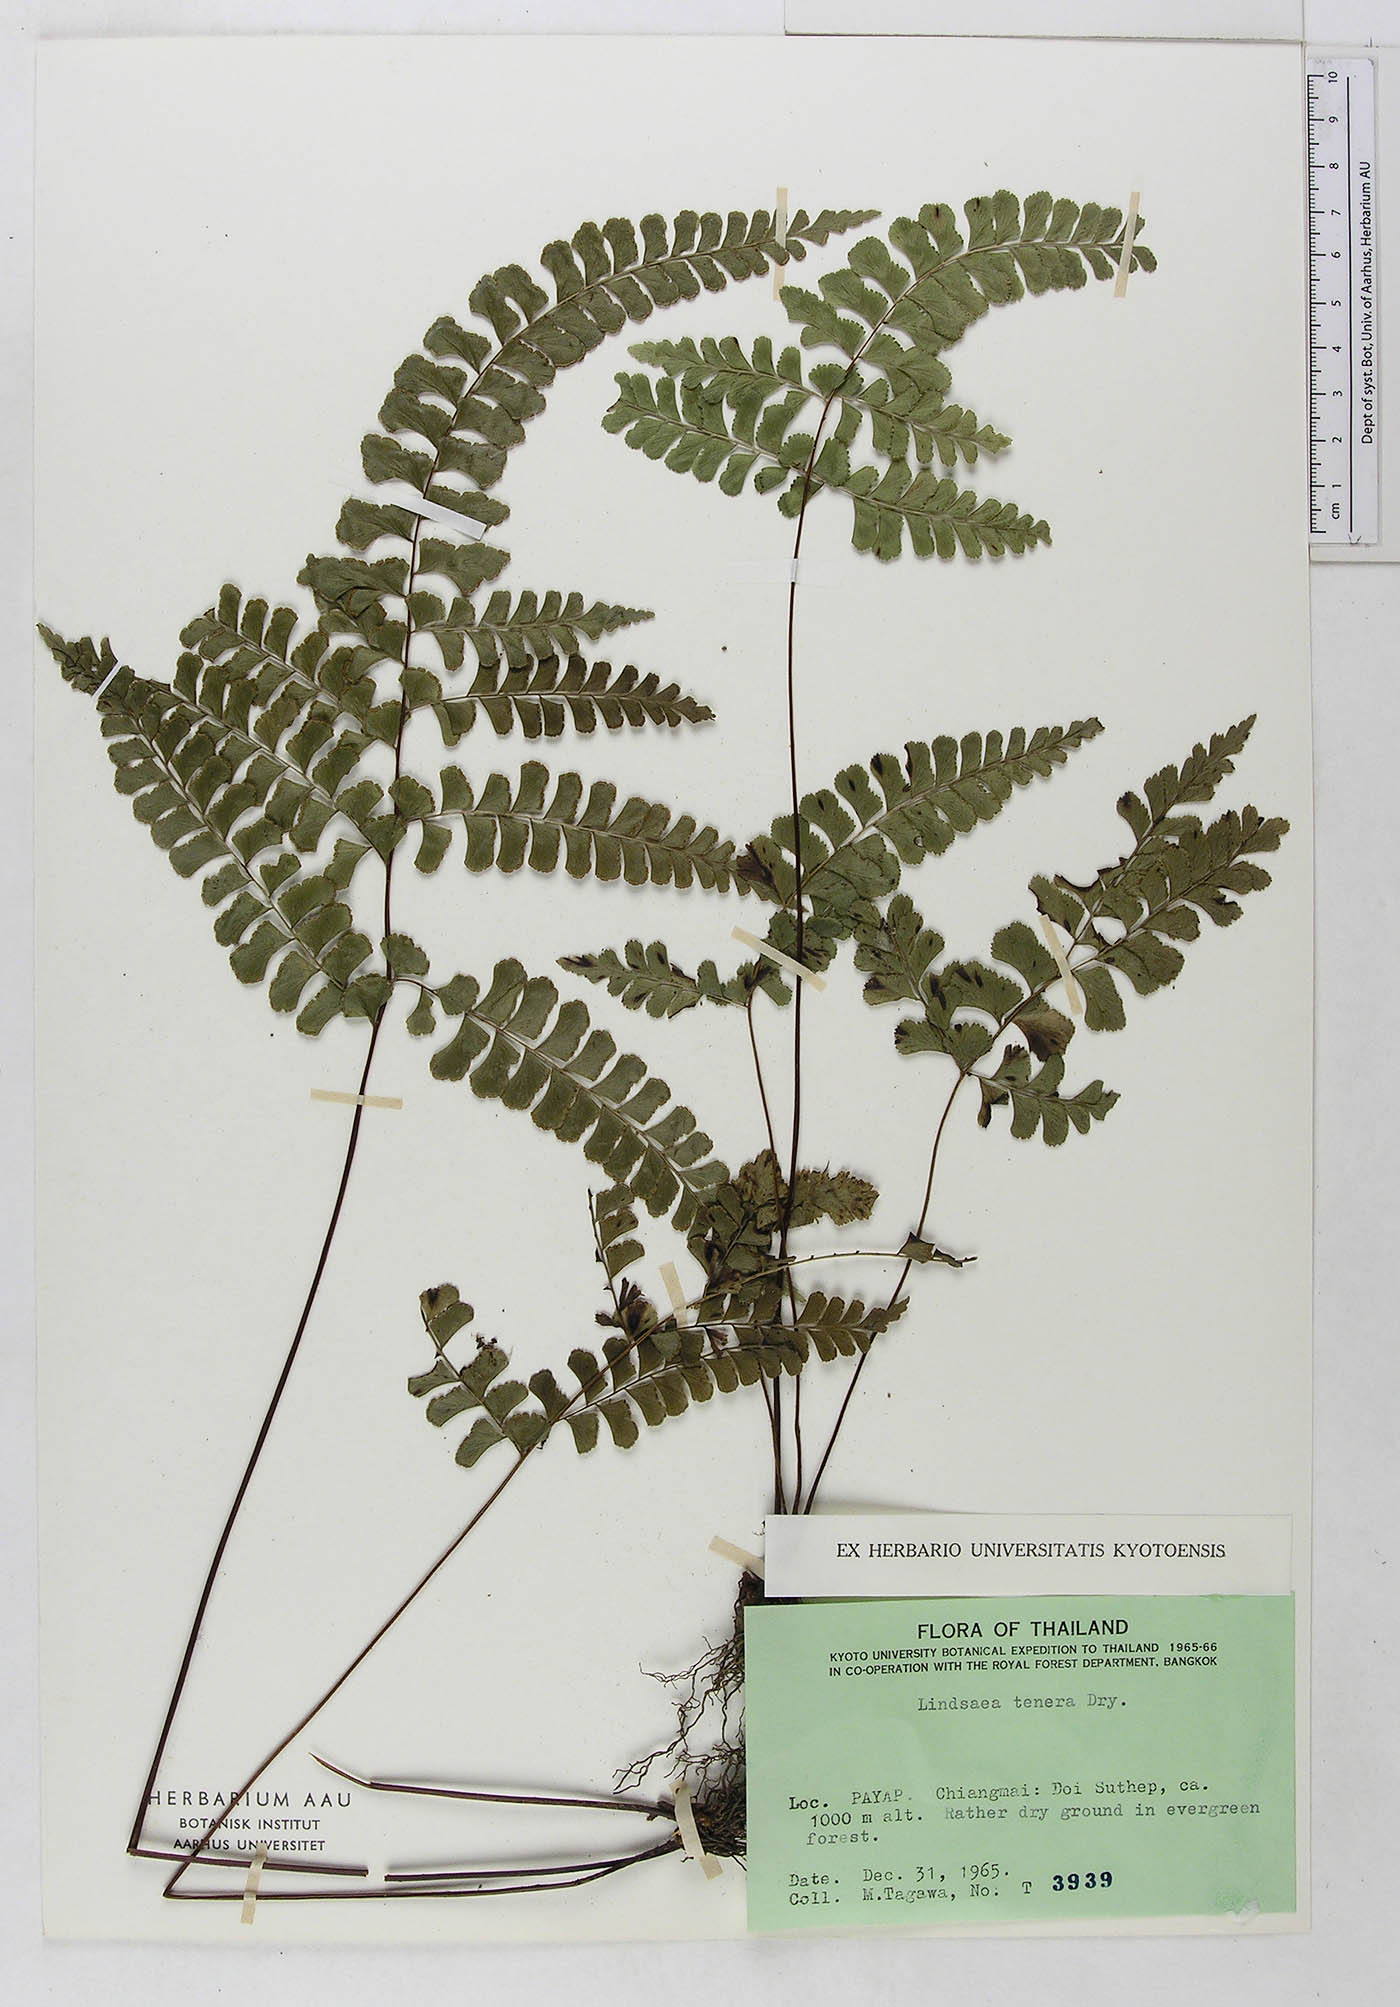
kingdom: Plantae
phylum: Tracheophyta
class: Polypodiopsida
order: Polypodiales
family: Lindsaeaceae
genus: Lindsaea
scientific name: Lindsaea tenera
